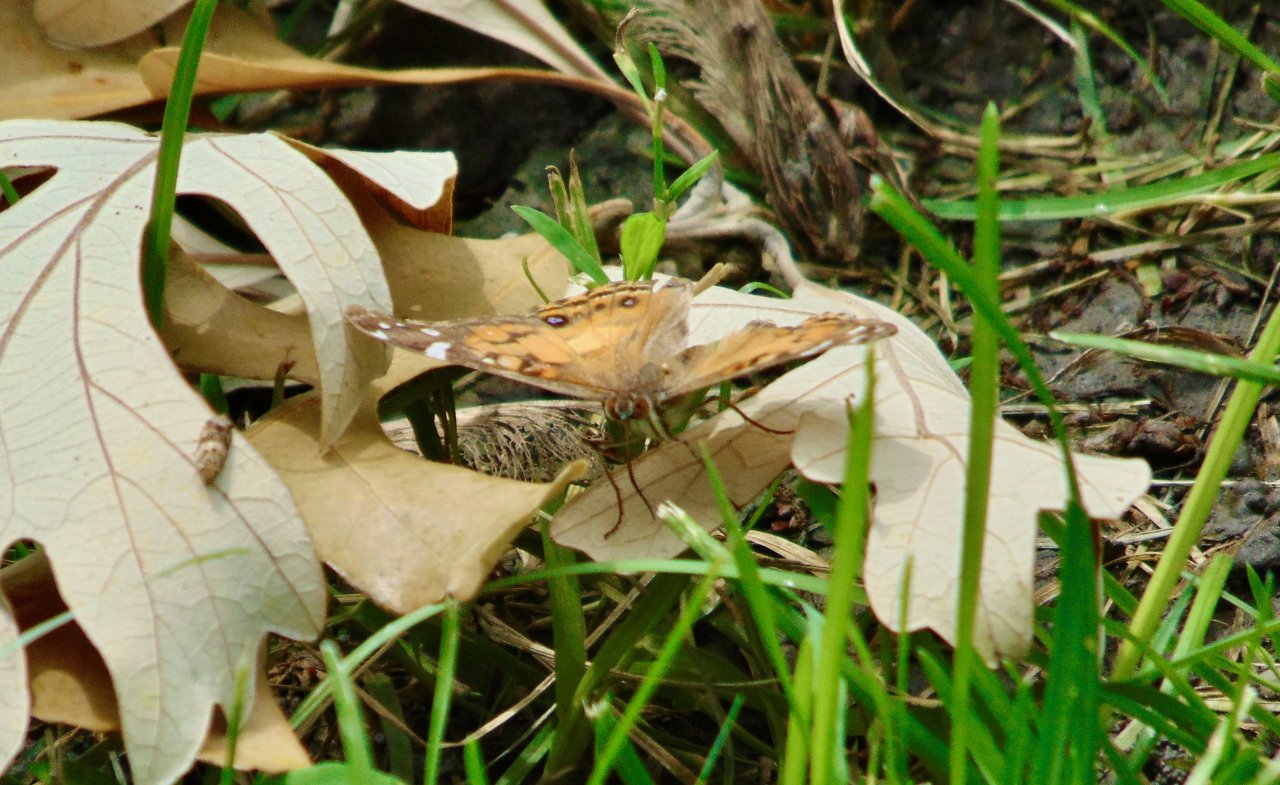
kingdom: Animalia
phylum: Arthropoda
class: Insecta
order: Lepidoptera
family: Nymphalidae
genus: Vanessa
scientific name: Vanessa virginiensis
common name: American Lady
